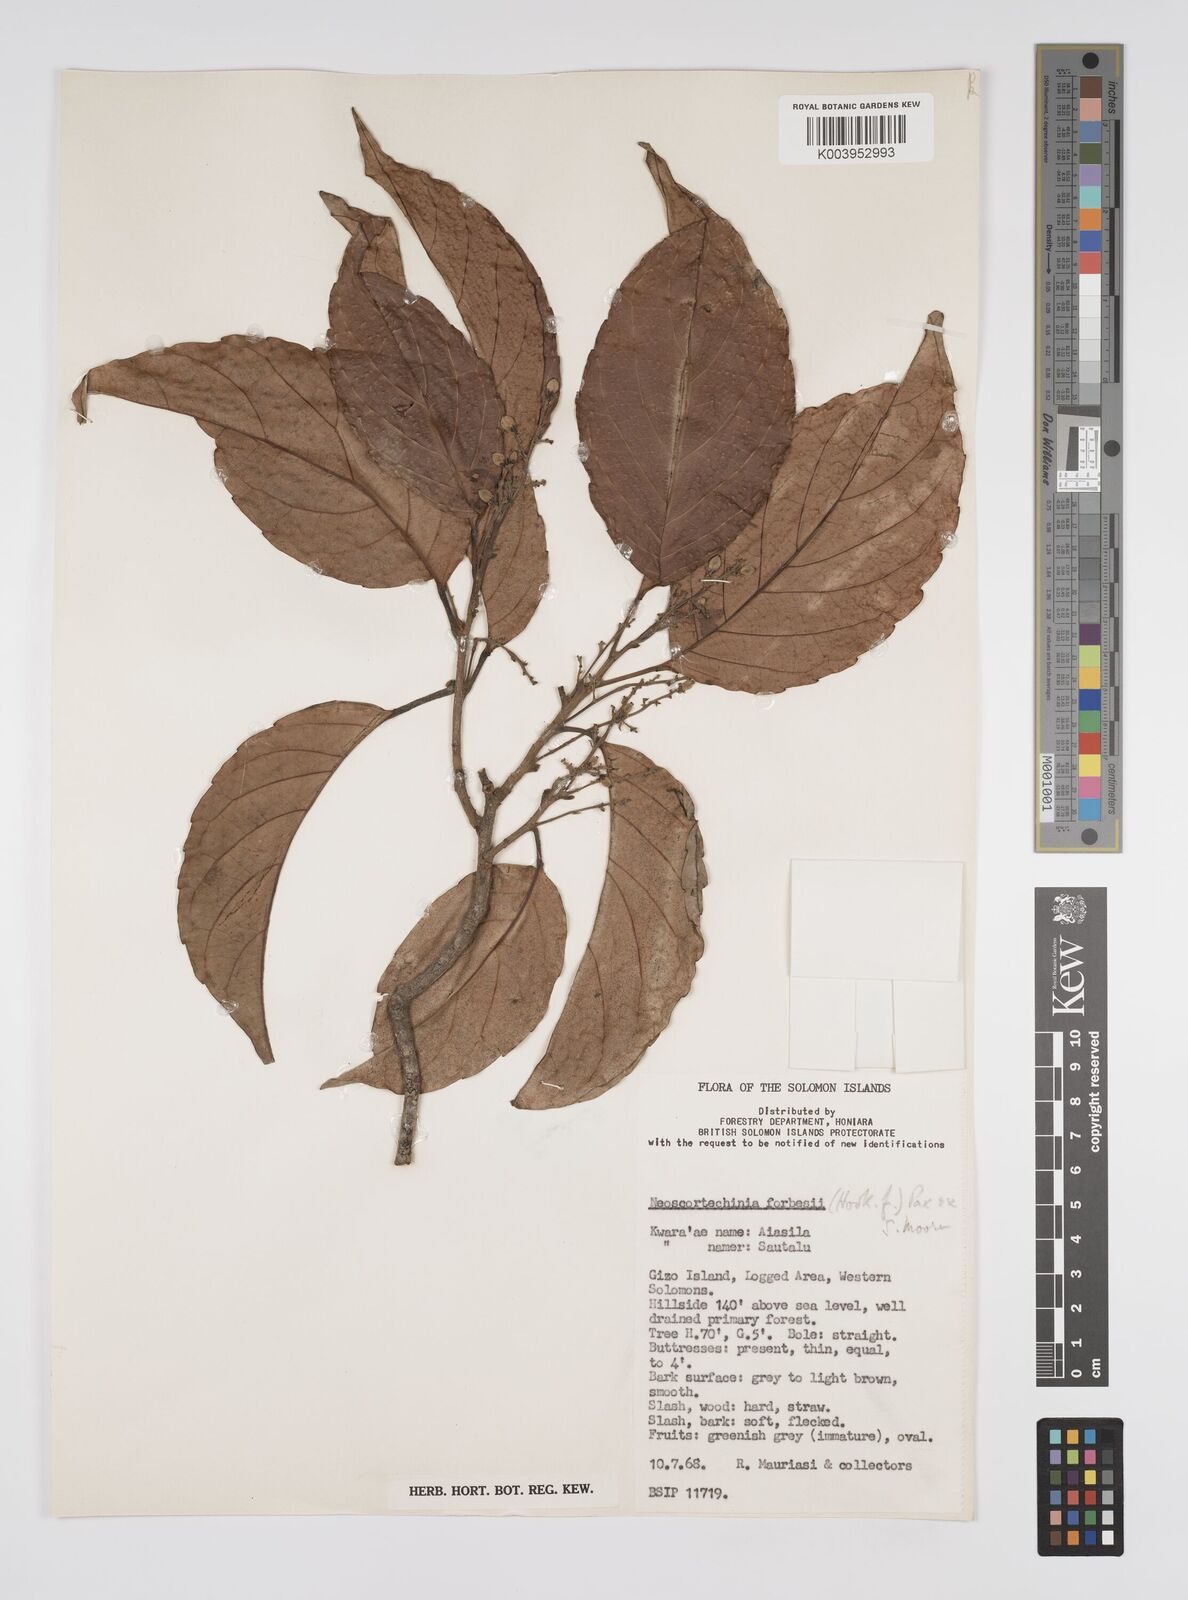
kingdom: Plantae
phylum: Tracheophyta
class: Magnoliopsida
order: Malpighiales
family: Euphorbiaceae
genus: Neoscortechinia
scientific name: Neoscortechinia forbesii
